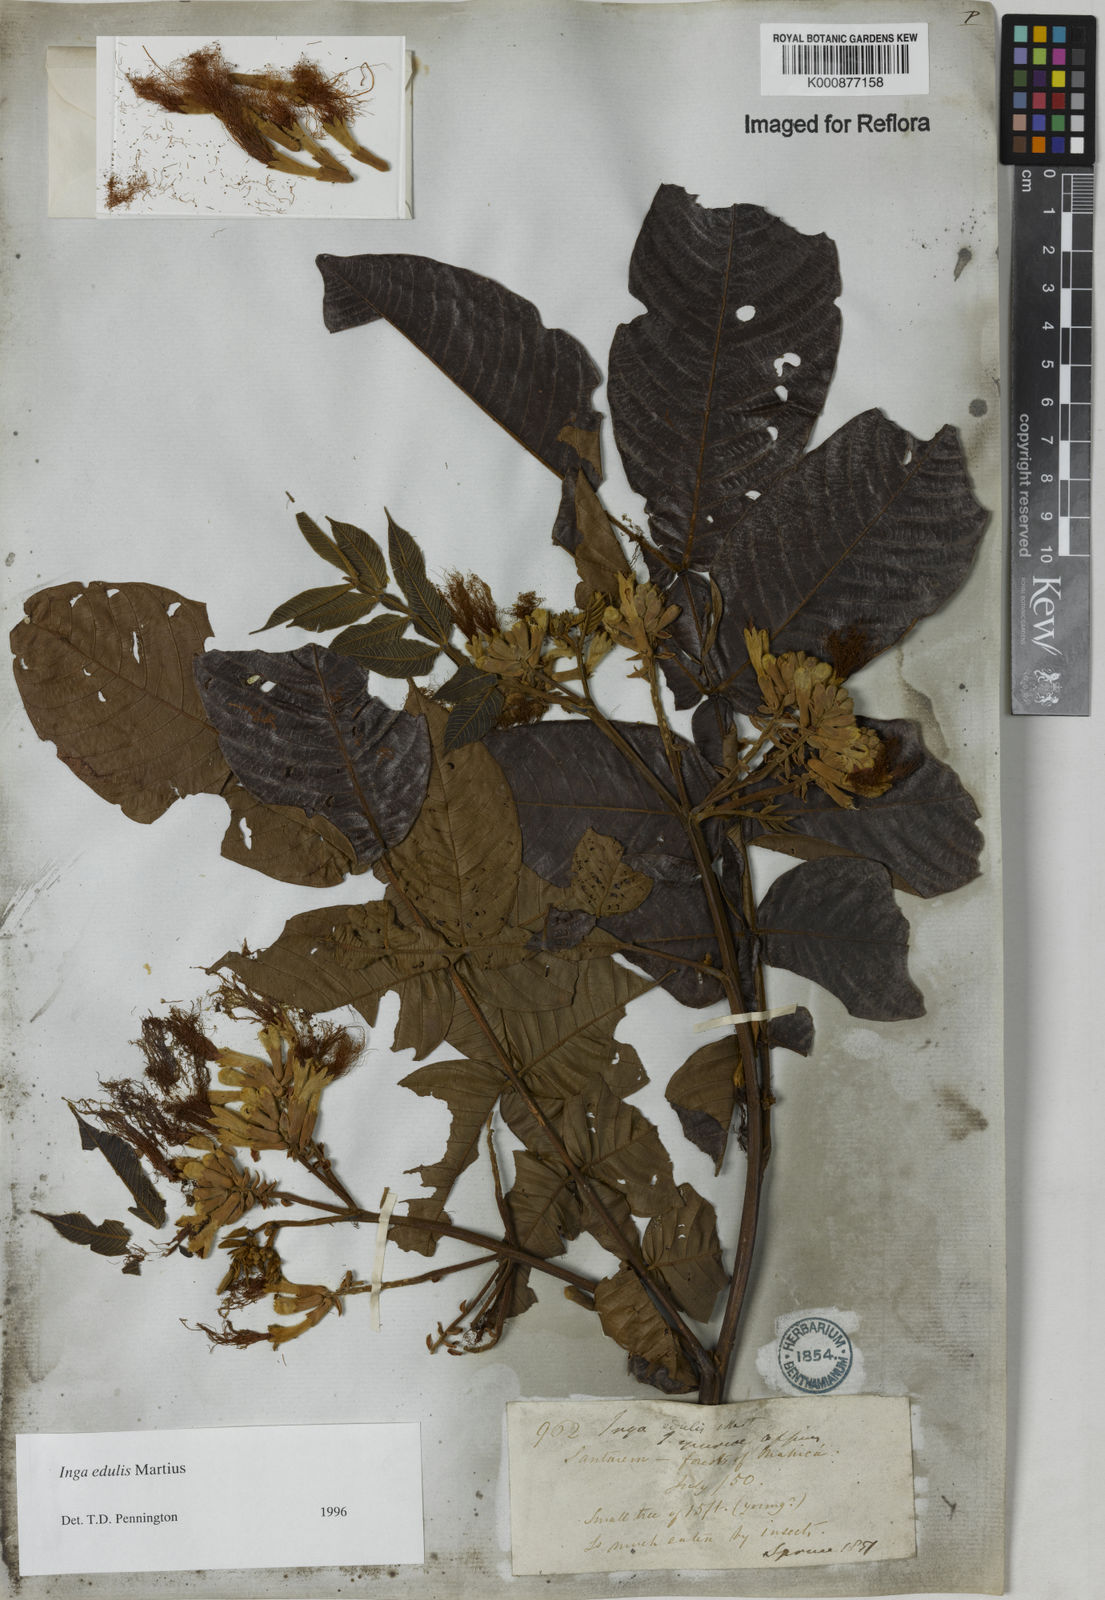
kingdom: Plantae
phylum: Tracheophyta
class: Magnoliopsida
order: Fabales
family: Fabaceae
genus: Inga
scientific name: Inga edulis
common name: Ice cream bean
